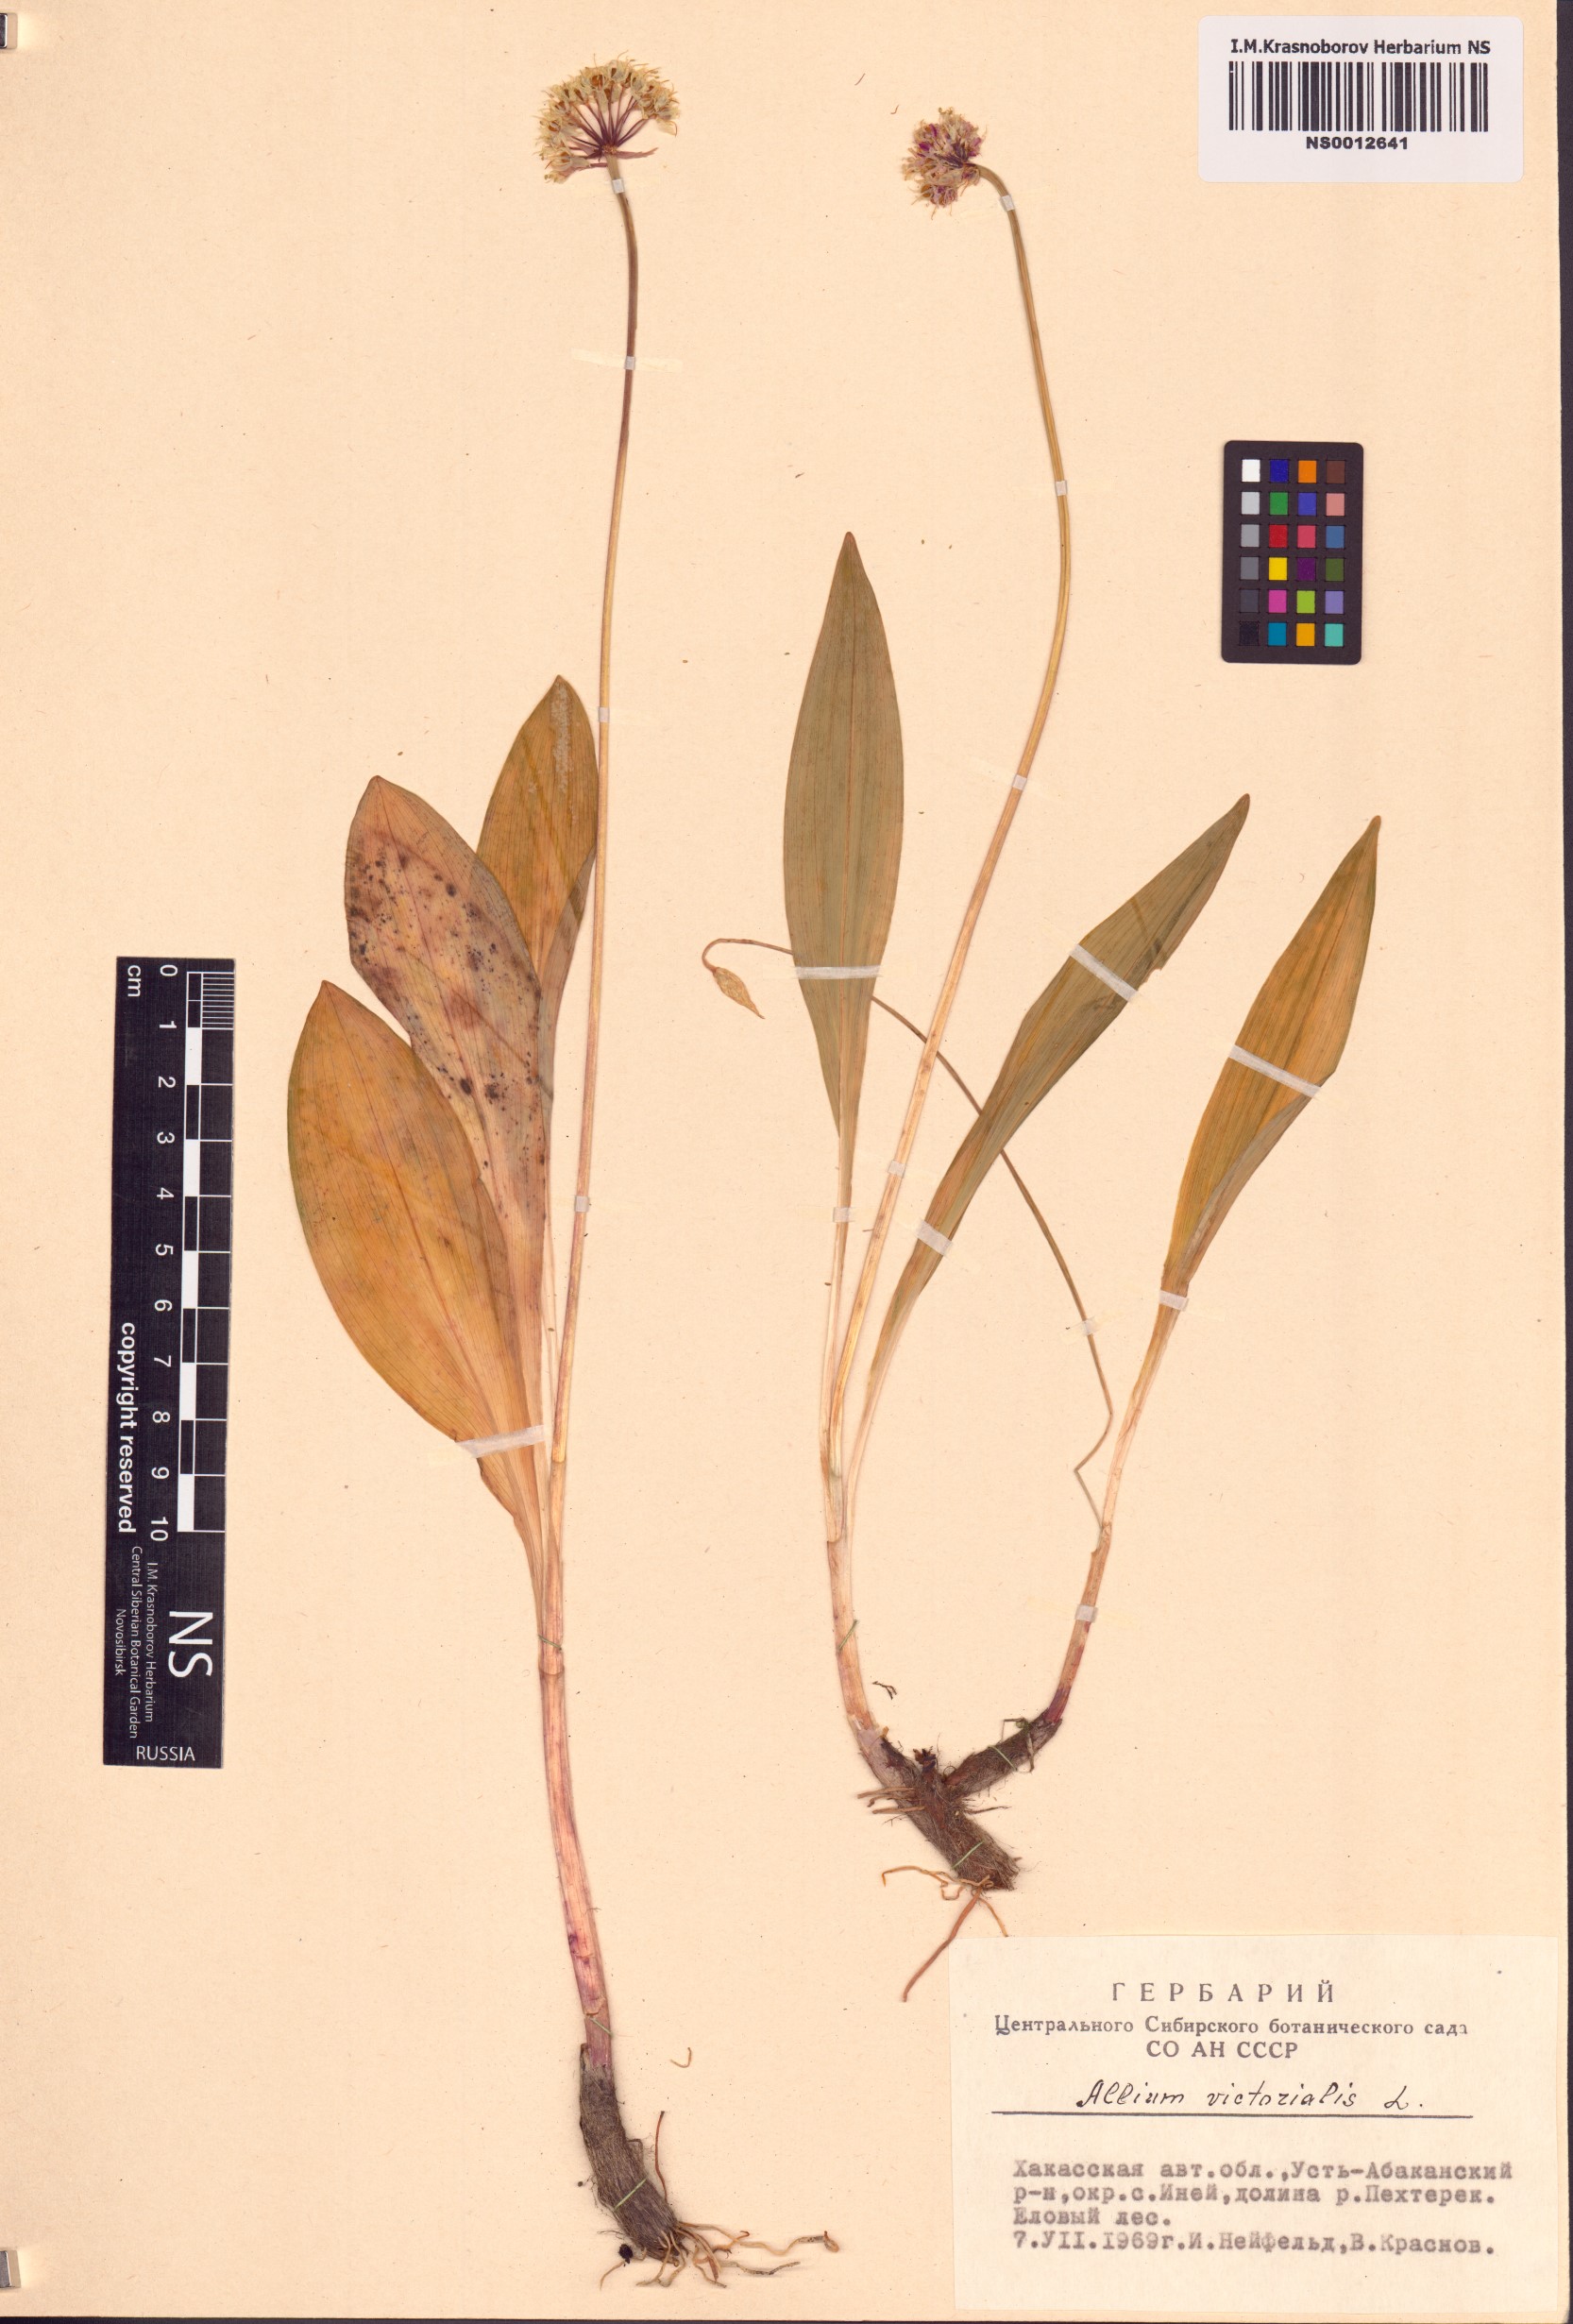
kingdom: Plantae
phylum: Tracheophyta
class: Liliopsida
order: Asparagales
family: Amaryllidaceae
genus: Allium
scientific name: Allium microdictyon
